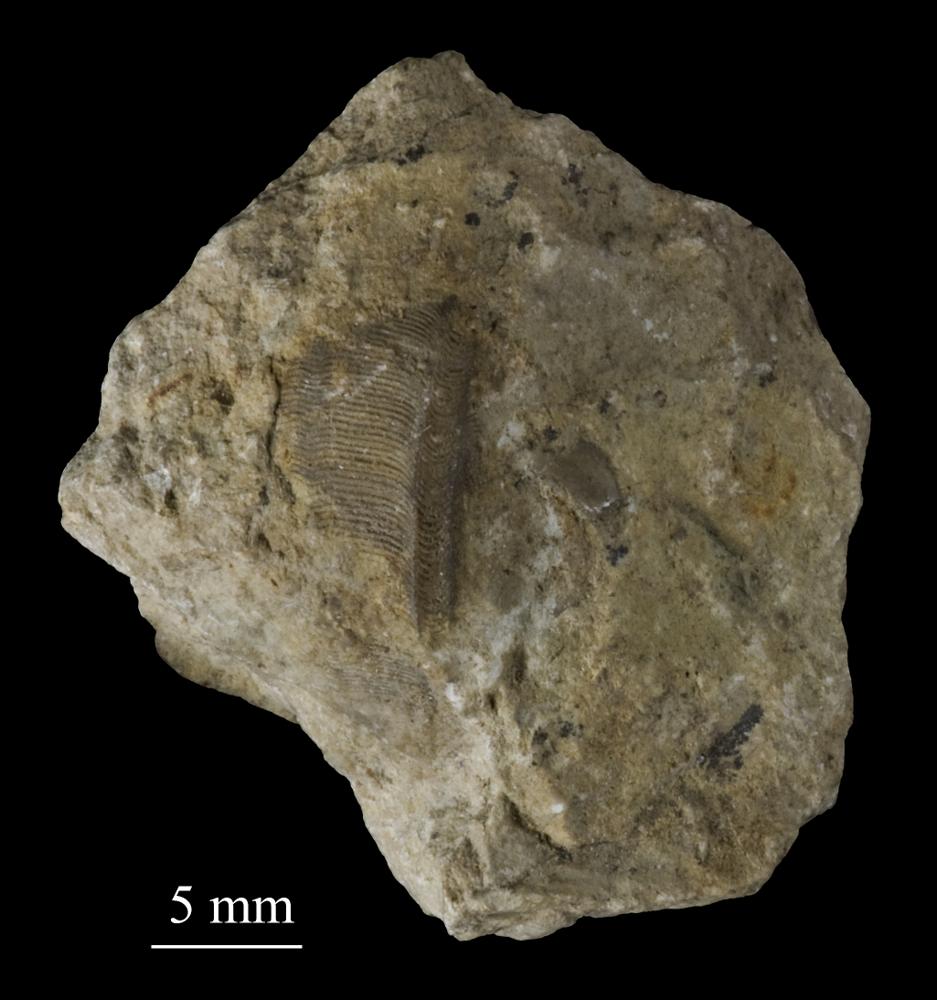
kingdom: Animalia
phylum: Mollusca
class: Gastropoda
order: Pleurotomariida
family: Phanerotrematidae
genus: Brachytomaria
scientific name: Brachytomaria Pleurotomaria baltica
